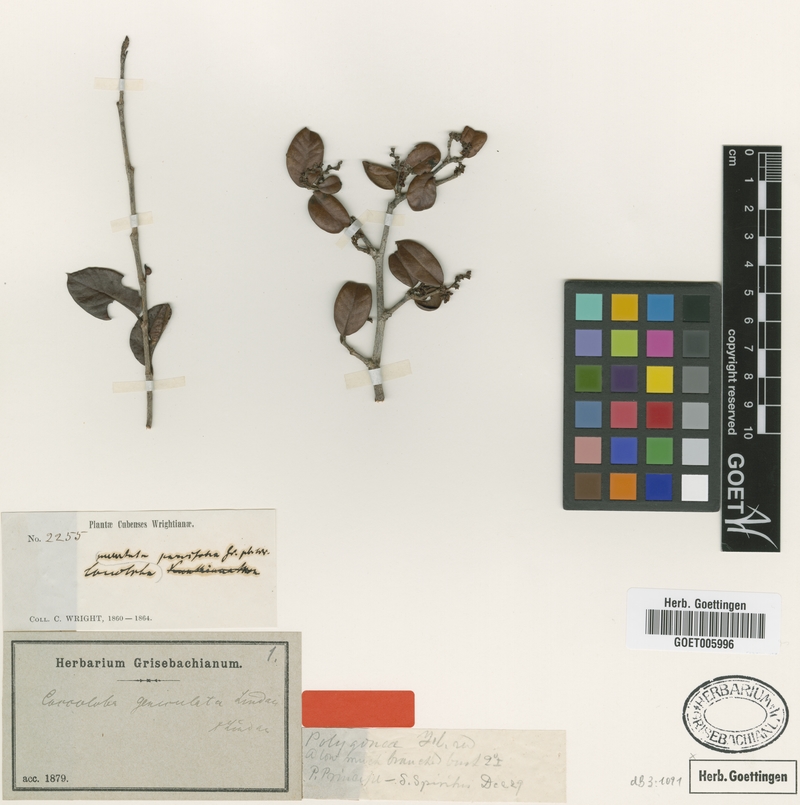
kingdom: Plantae
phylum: Tracheophyta
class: Magnoliopsida
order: Caryophyllales
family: Polygonaceae
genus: Coccoloba
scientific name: Coccoloba geniculata
